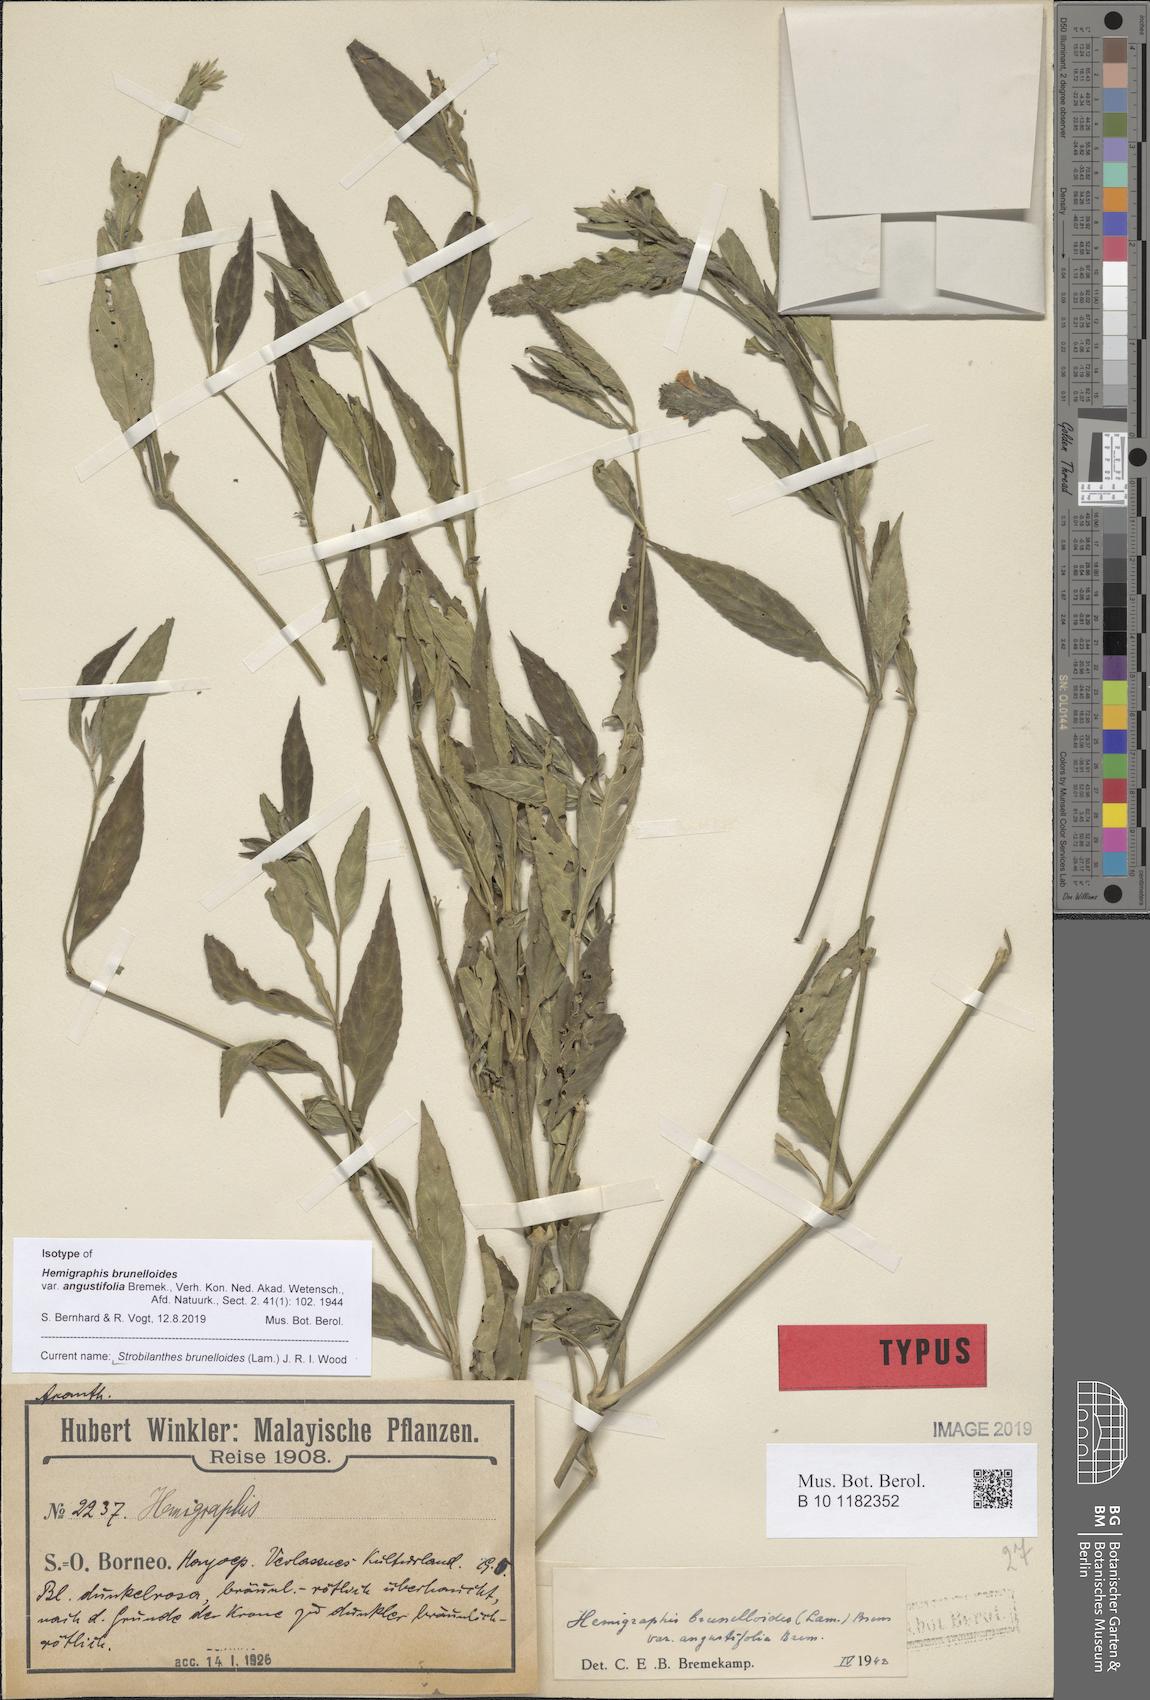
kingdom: Plantae
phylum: Tracheophyta
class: Magnoliopsida
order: Lamiales
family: Acanthaceae
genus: Strobilanthes
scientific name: Strobilanthes brunelloides
